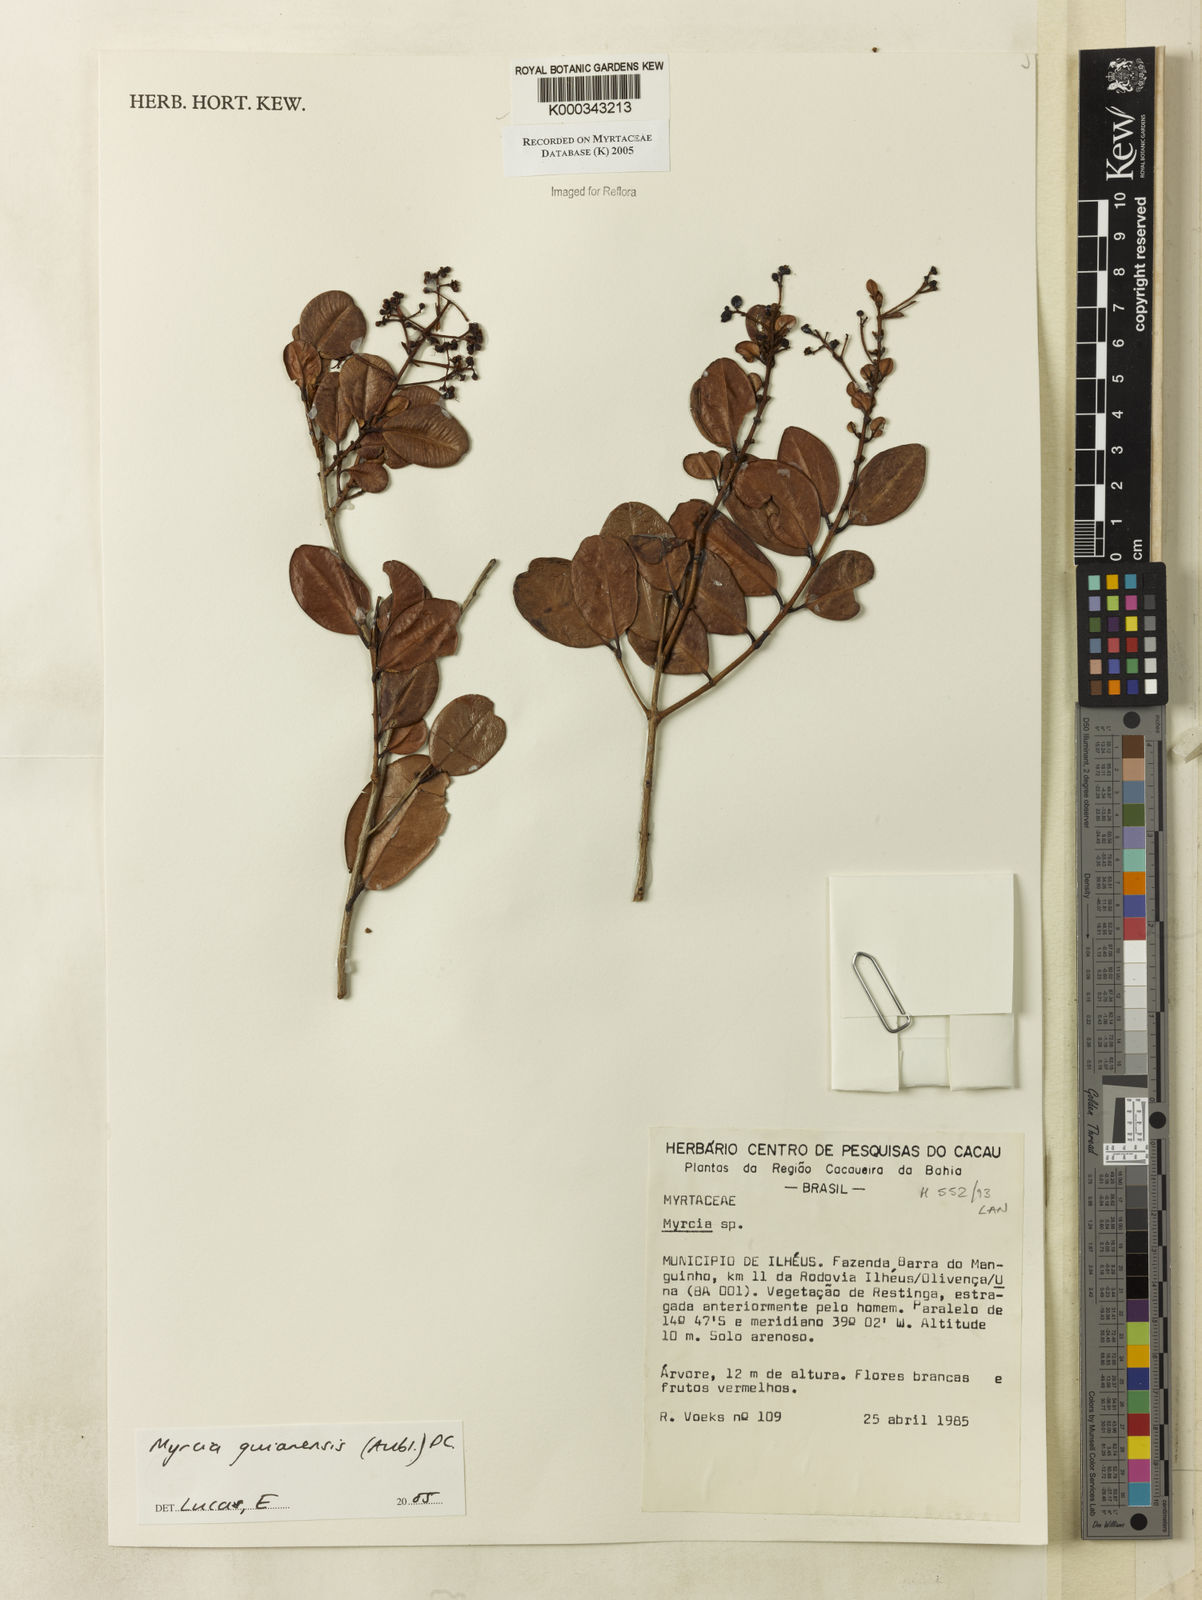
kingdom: Plantae
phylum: Tracheophyta
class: Magnoliopsida
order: Myrtales
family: Myrtaceae
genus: Myrcia
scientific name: Myrcia guianensis
